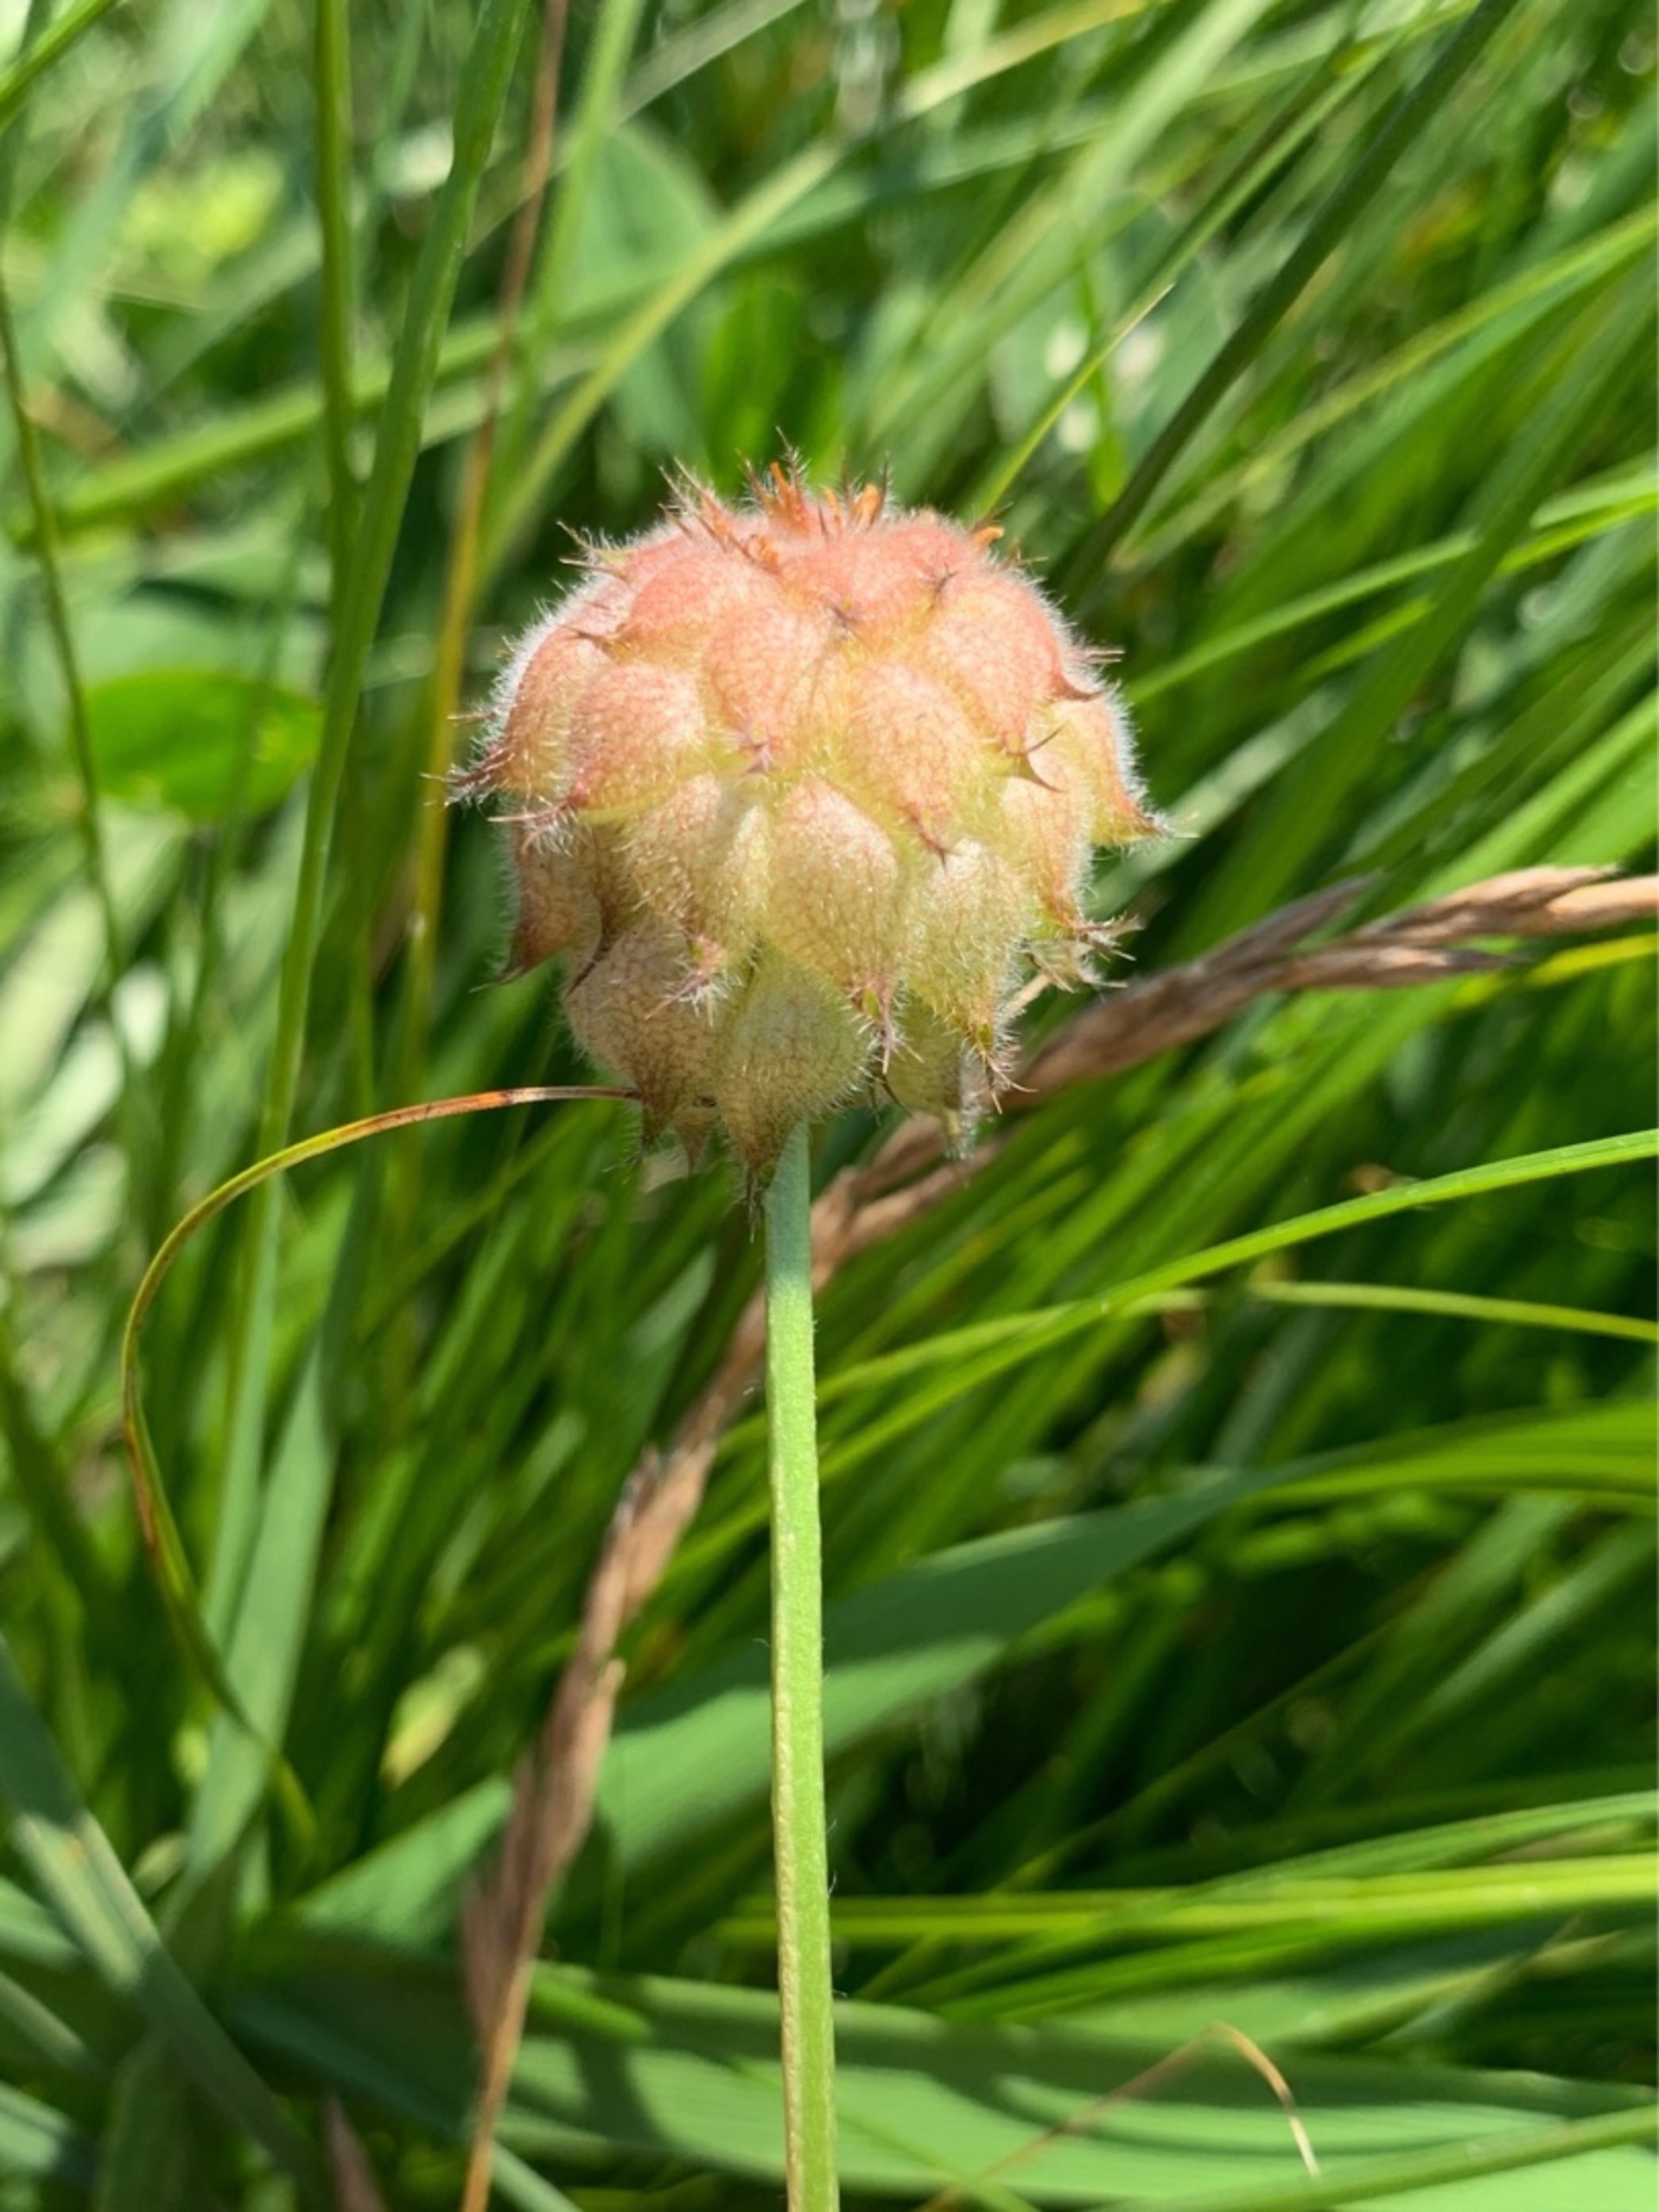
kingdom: Plantae
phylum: Tracheophyta
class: Magnoliopsida
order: Fabales
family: Fabaceae
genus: Trifolium
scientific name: Trifolium fragiferum
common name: Jordbær-kløver
